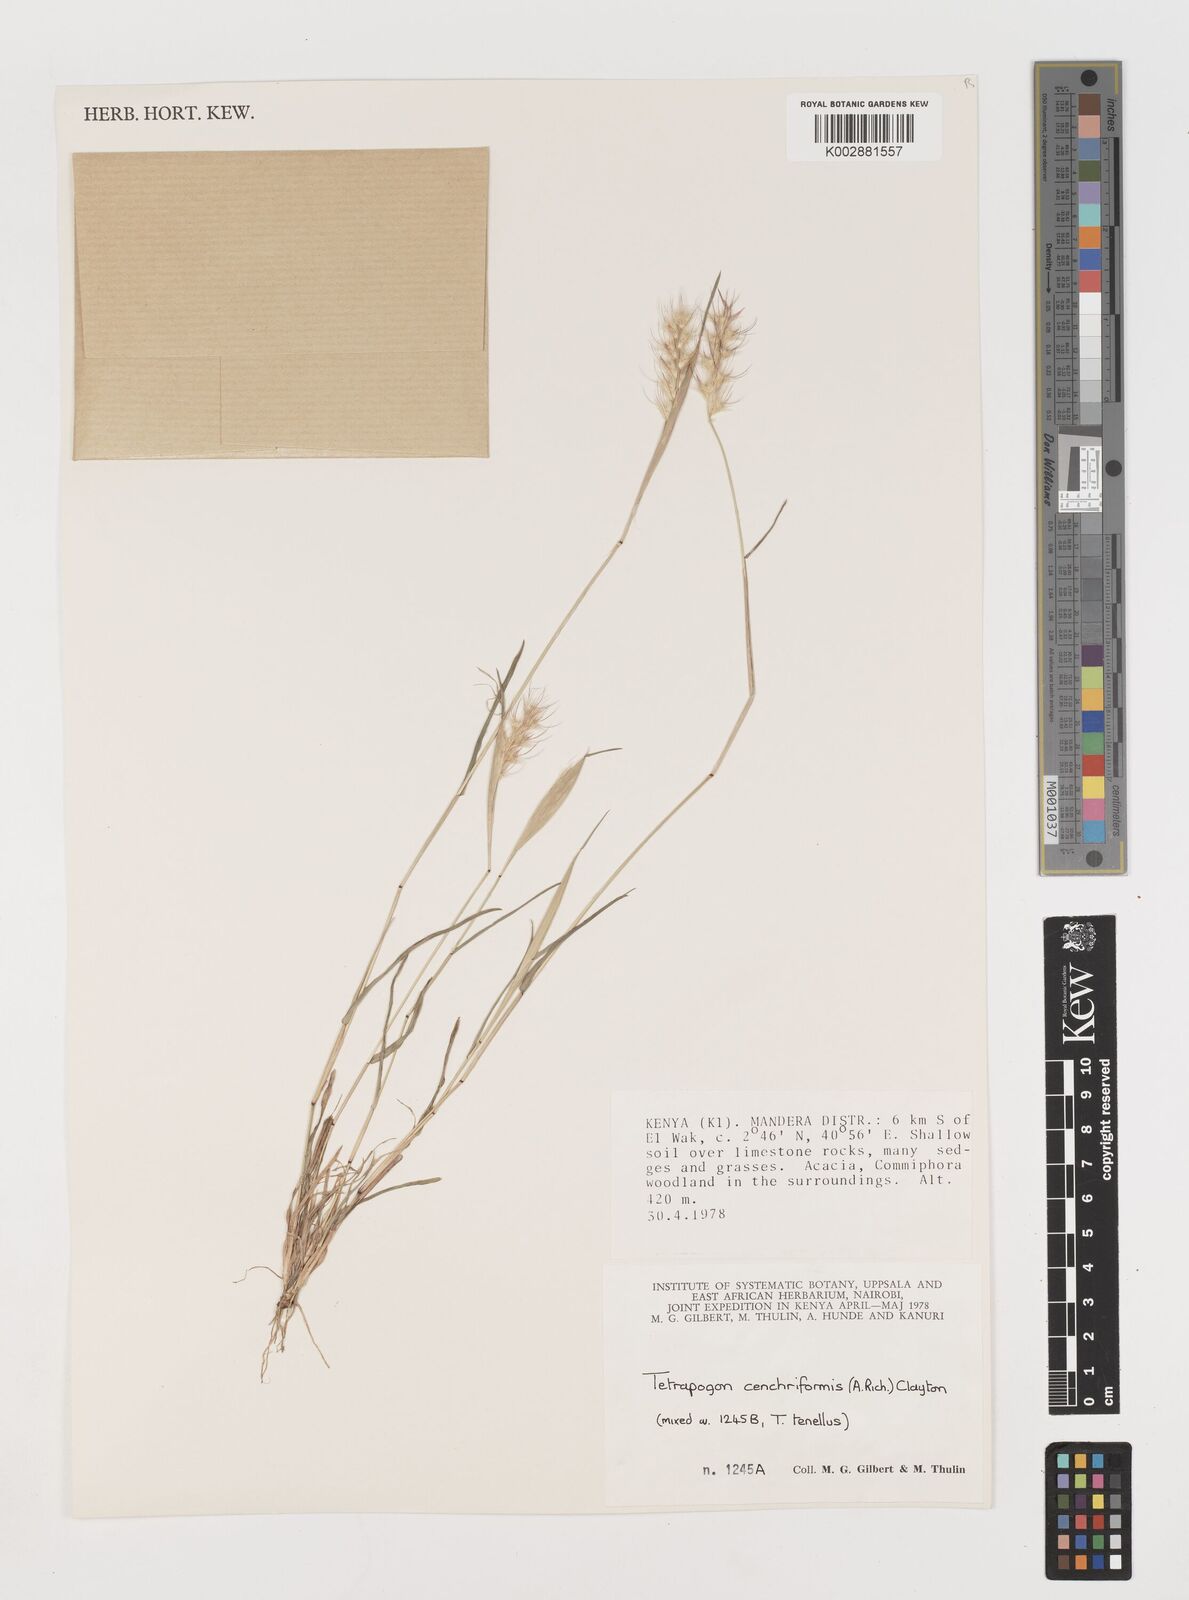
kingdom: Plantae
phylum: Tracheophyta
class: Liliopsida
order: Poales
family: Poaceae
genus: Tetrapogon
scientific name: Tetrapogon cenchriformis
